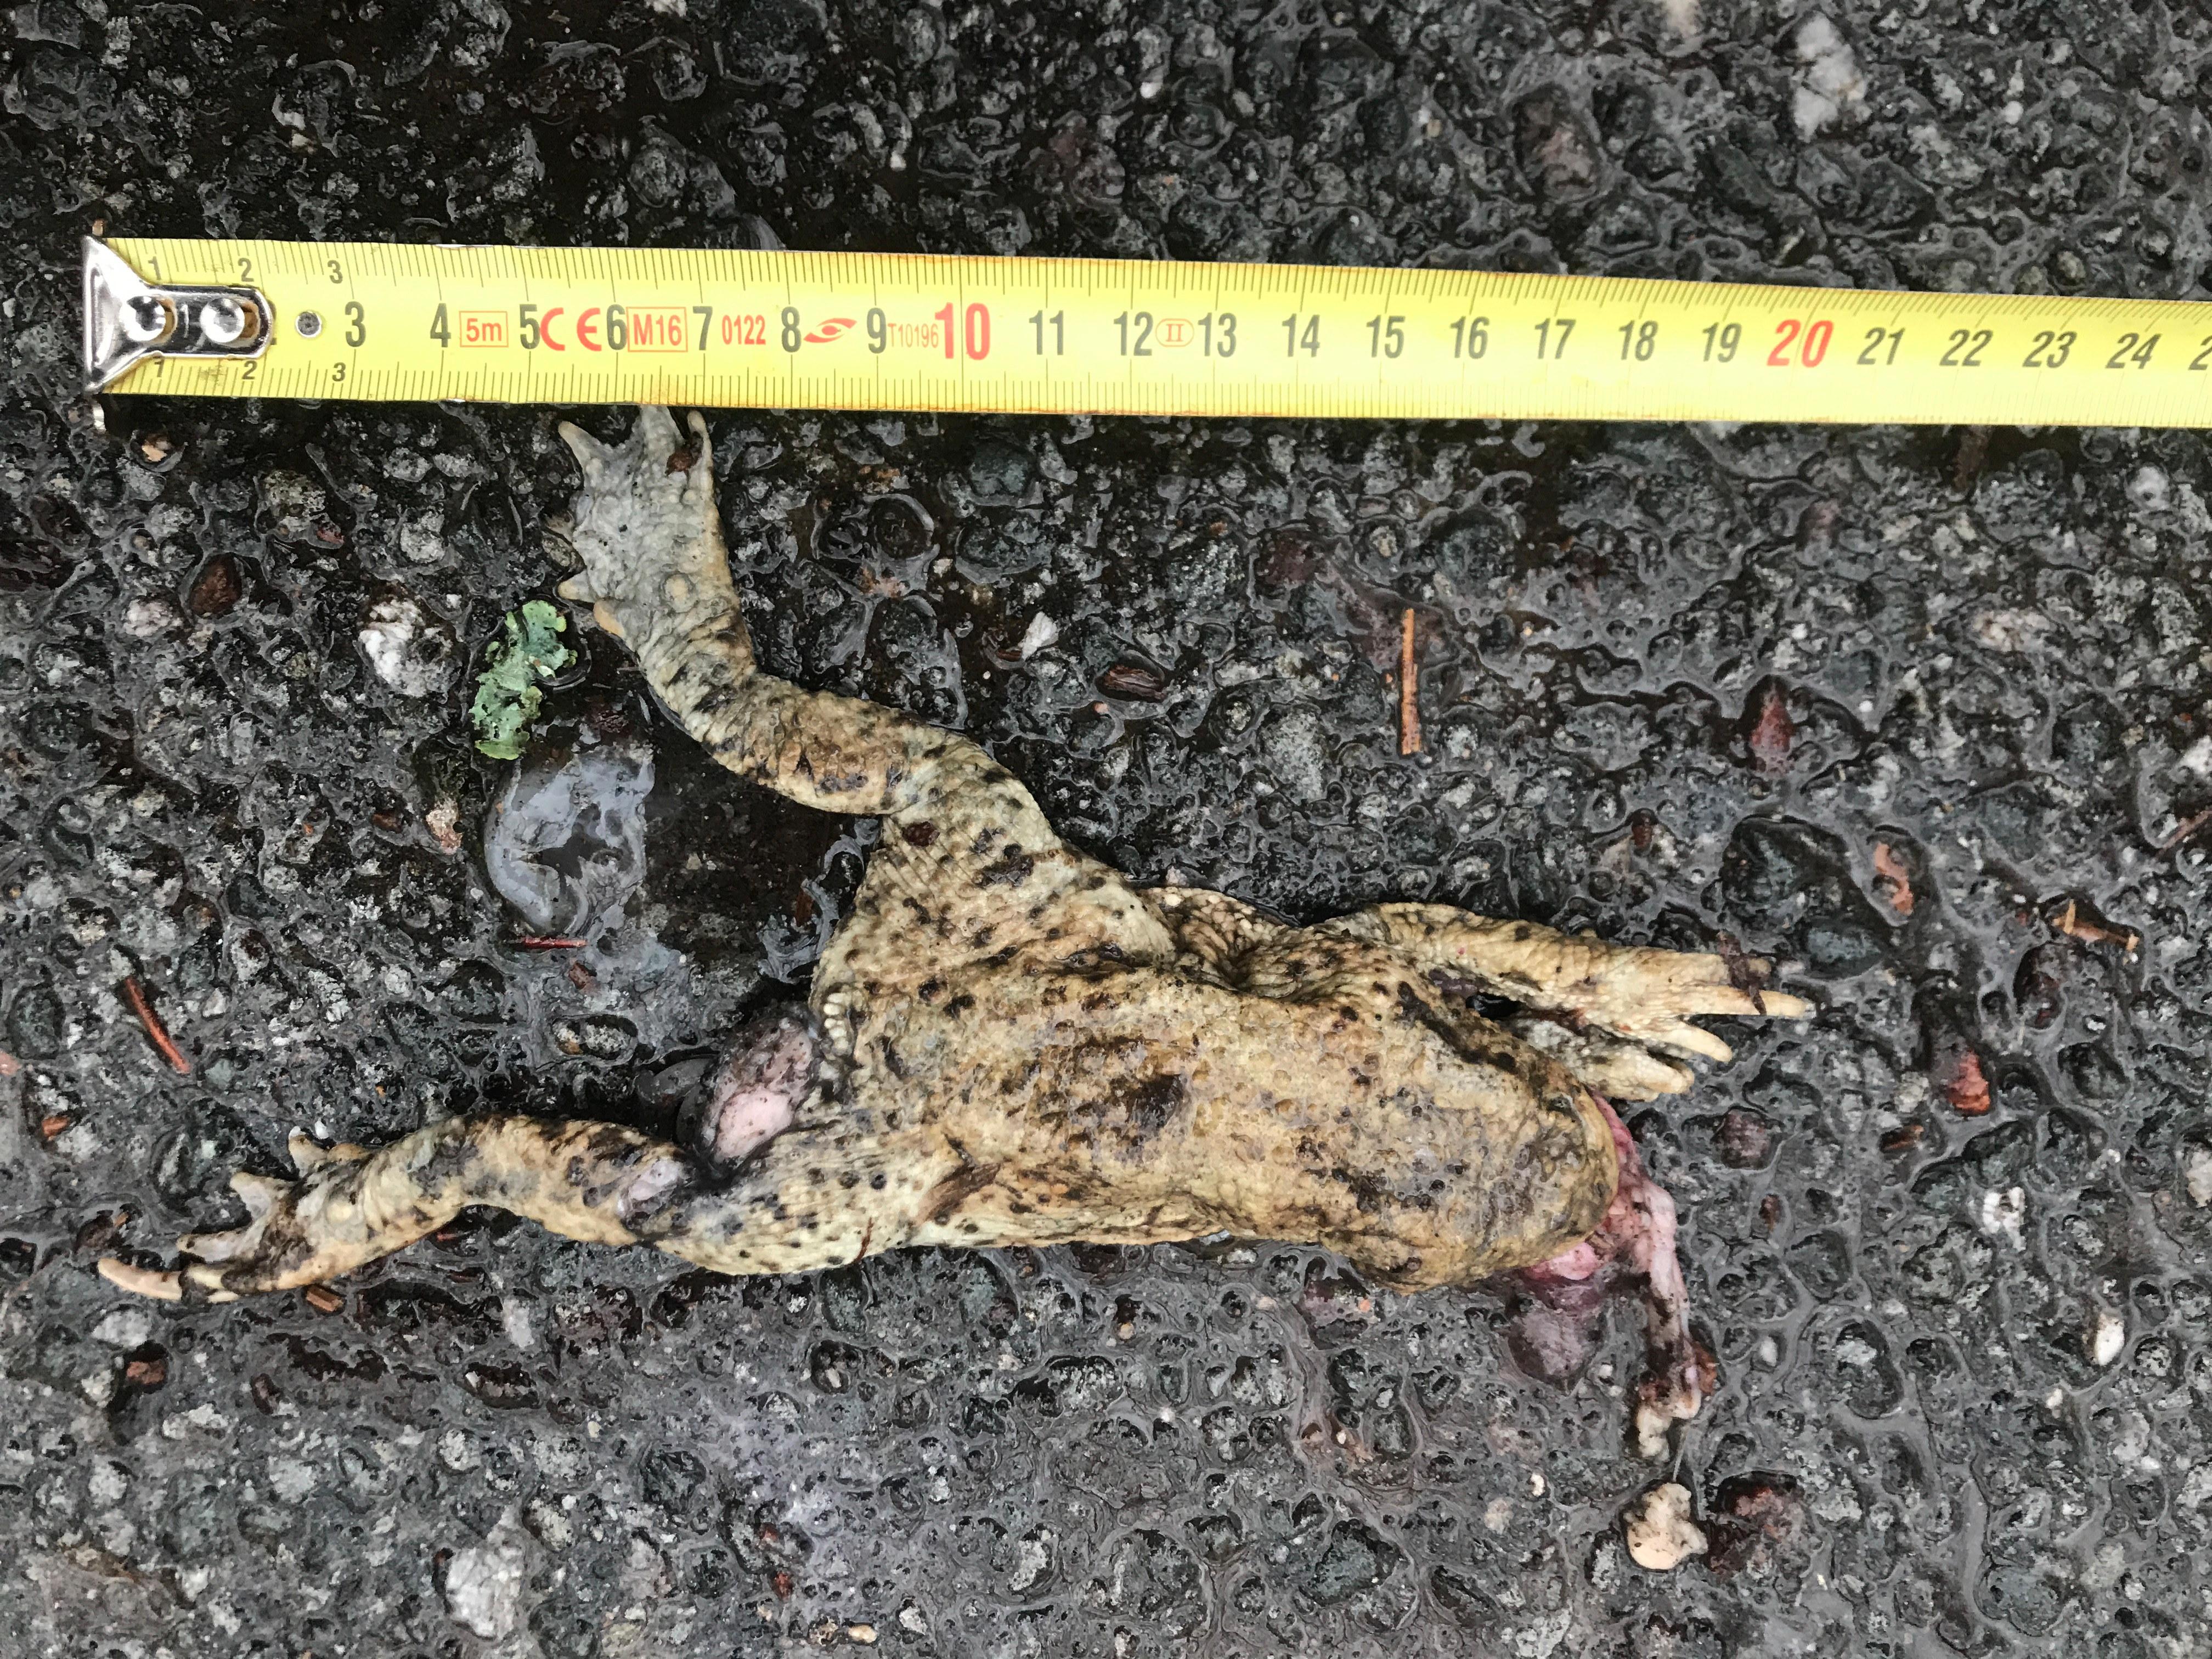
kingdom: Animalia
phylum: Chordata
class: Amphibia
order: Anura
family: Bufonidae
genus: Bufo
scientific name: Bufo bufo
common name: Common toad
